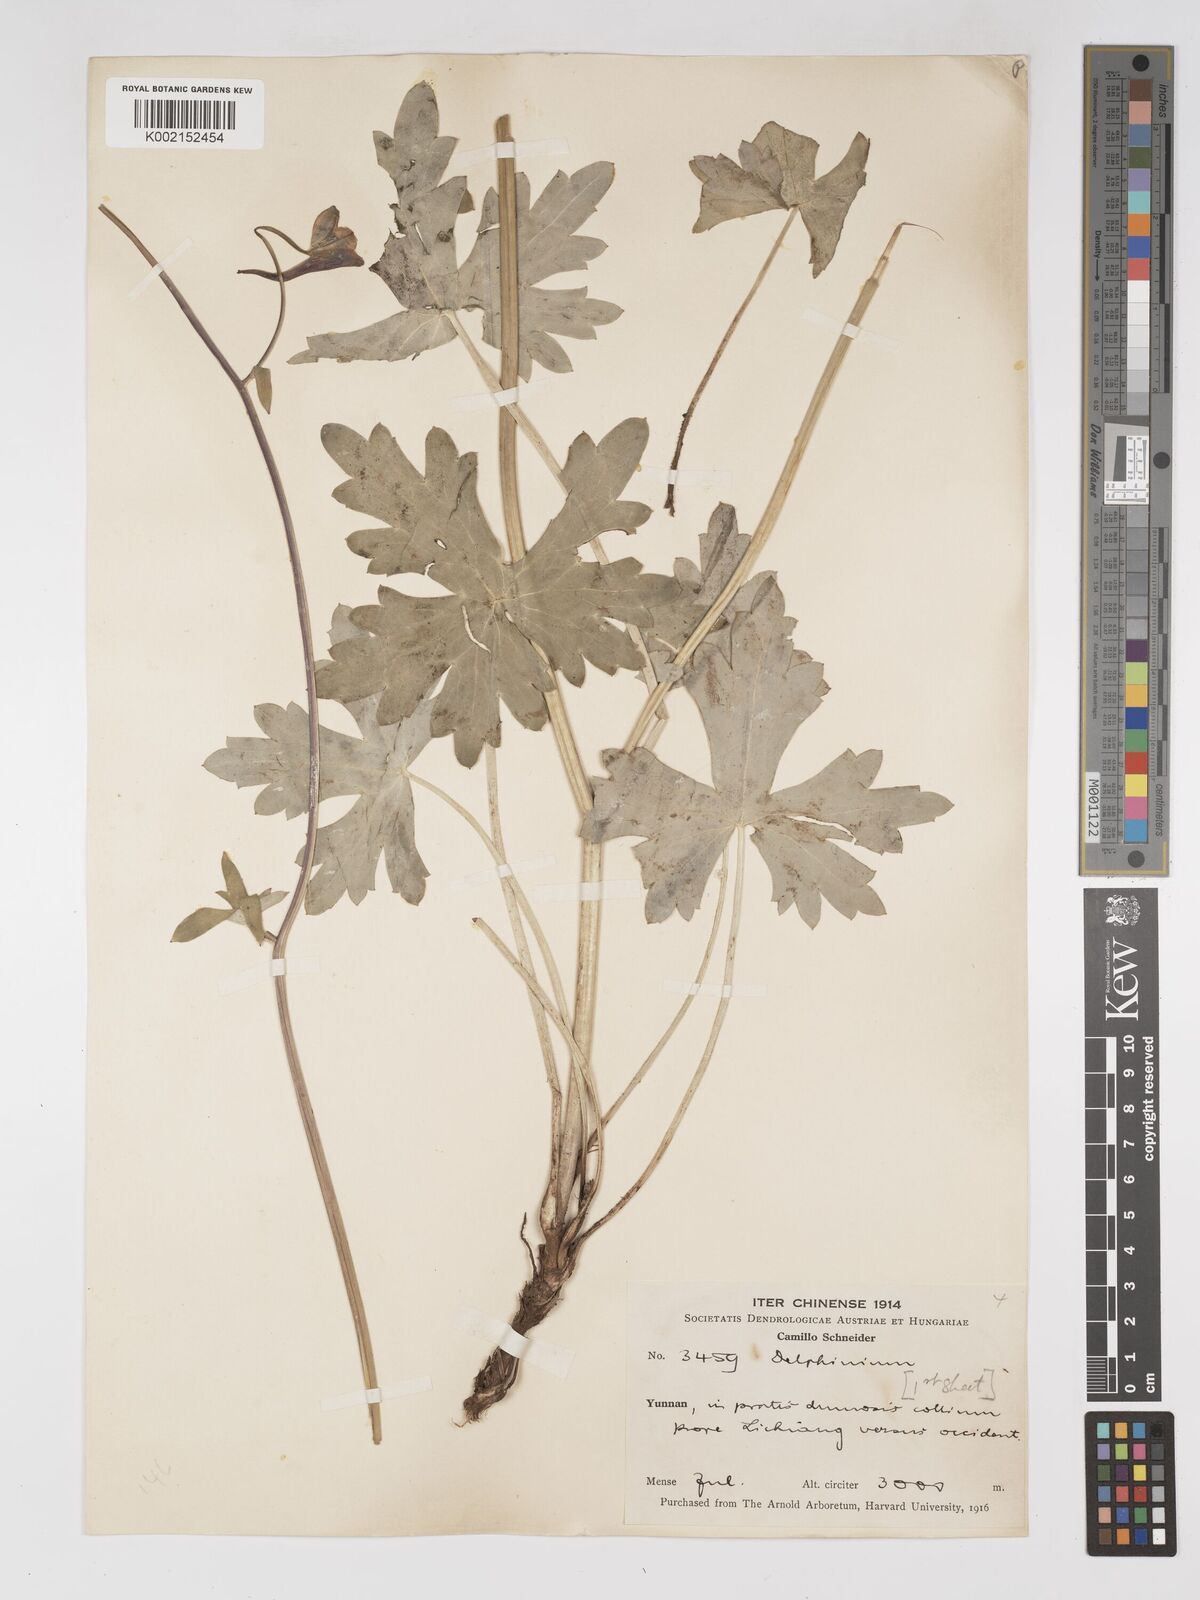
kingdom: Plantae
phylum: Tracheophyta
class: Magnoliopsida
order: Ranunculales
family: Ranunculaceae
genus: Delphinium
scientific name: Delphinium ceratophorum
